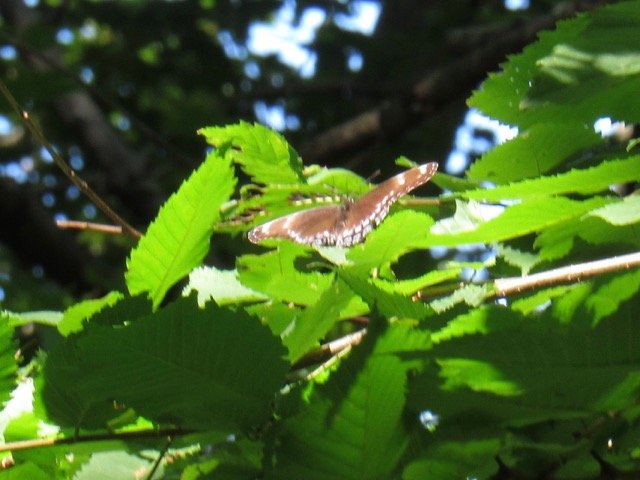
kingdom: Animalia
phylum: Arthropoda
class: Insecta
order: Lepidoptera
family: Nymphalidae
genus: Limenitis
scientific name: Limenitis
